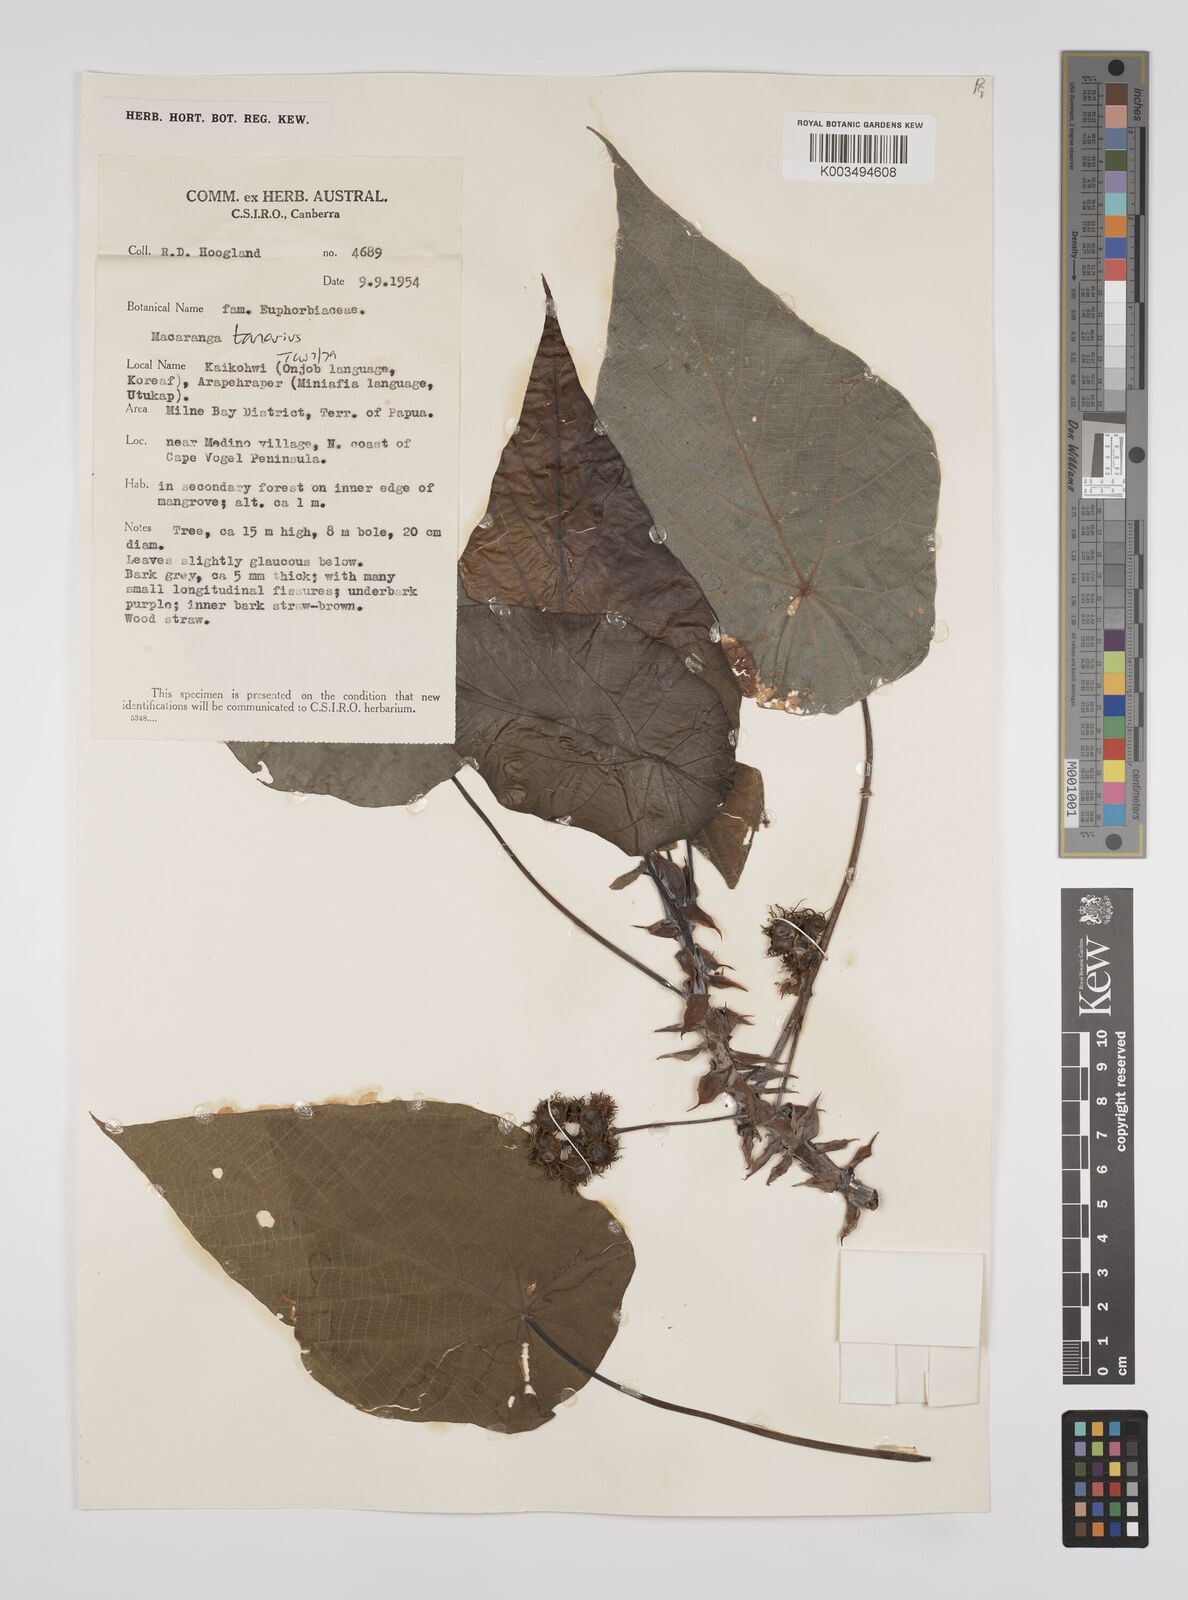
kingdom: Plantae
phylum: Tracheophyta
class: Magnoliopsida
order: Malpighiales
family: Euphorbiaceae
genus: Macaranga
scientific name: Macaranga tanarius
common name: Parasol leaf tree
